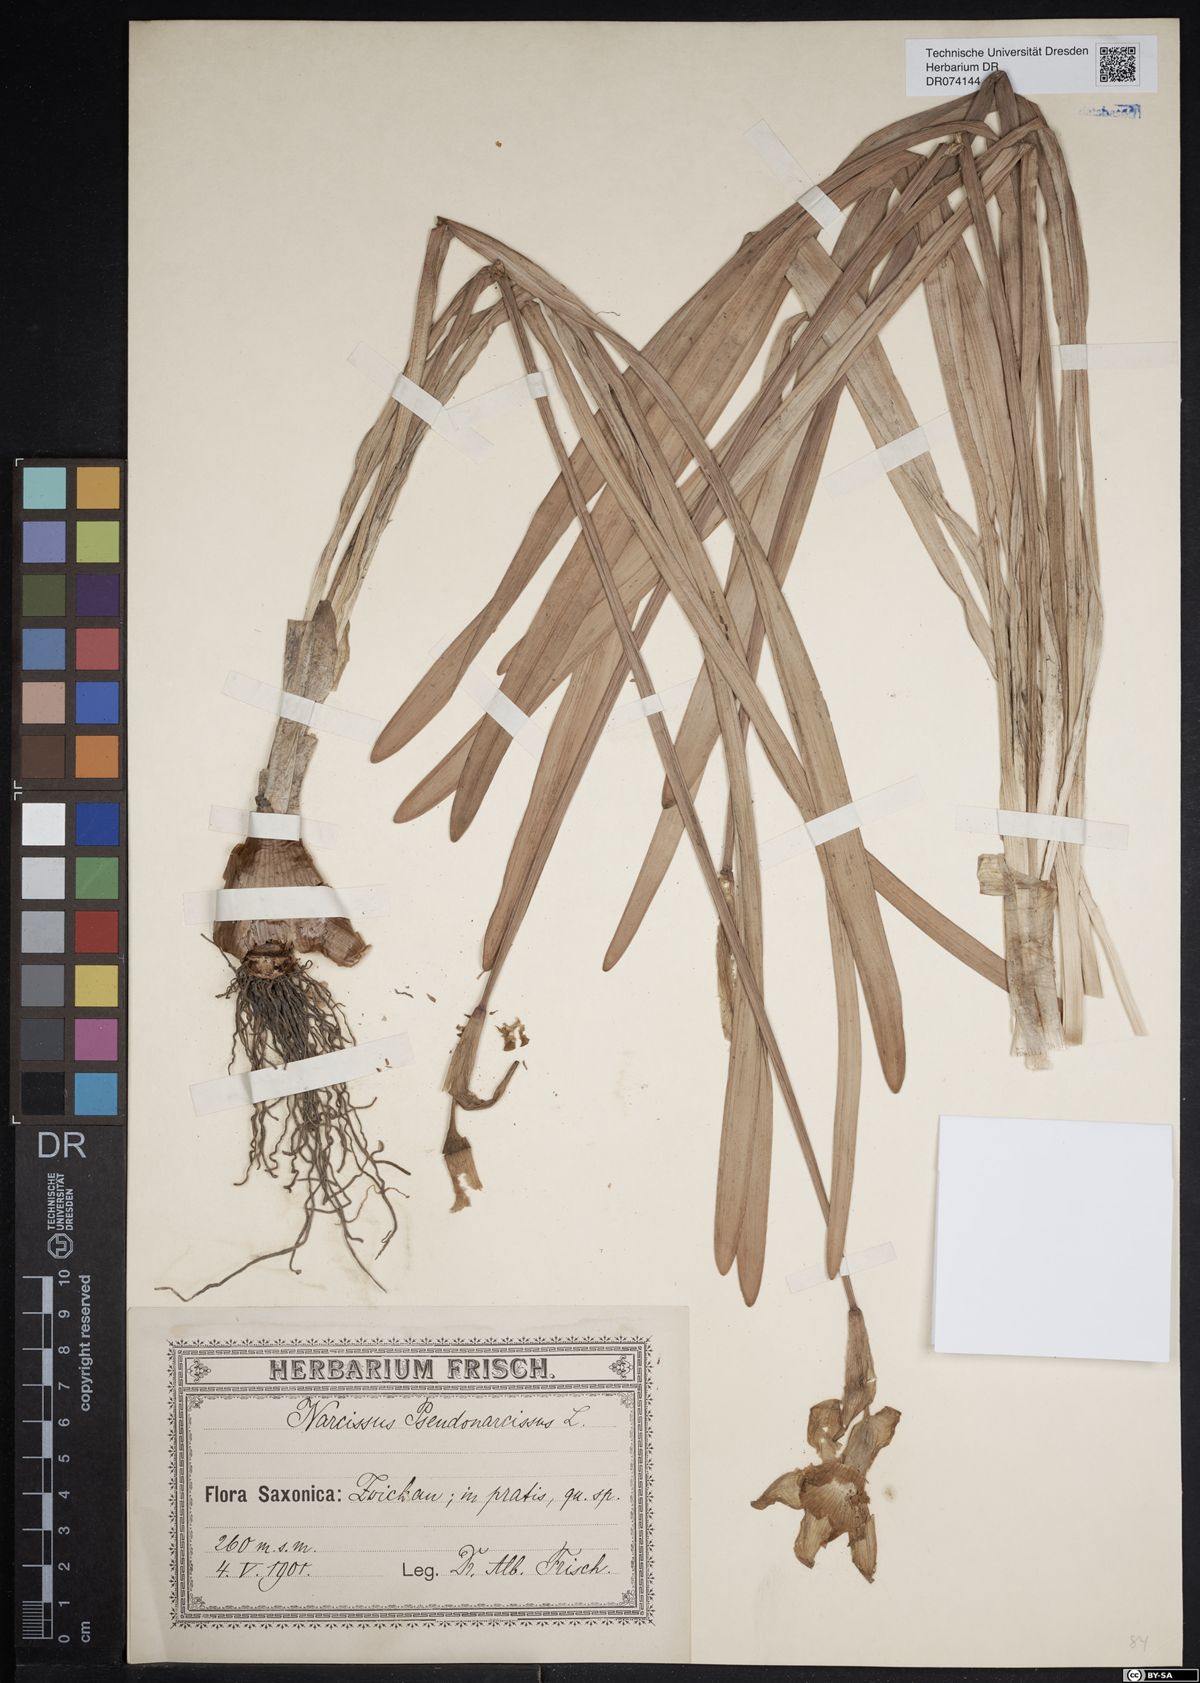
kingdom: Plantae
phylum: Tracheophyta
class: Liliopsida
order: Asparagales
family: Amaryllidaceae
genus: Narcissus
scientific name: Narcissus pseudonarcissus
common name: Daffodil
